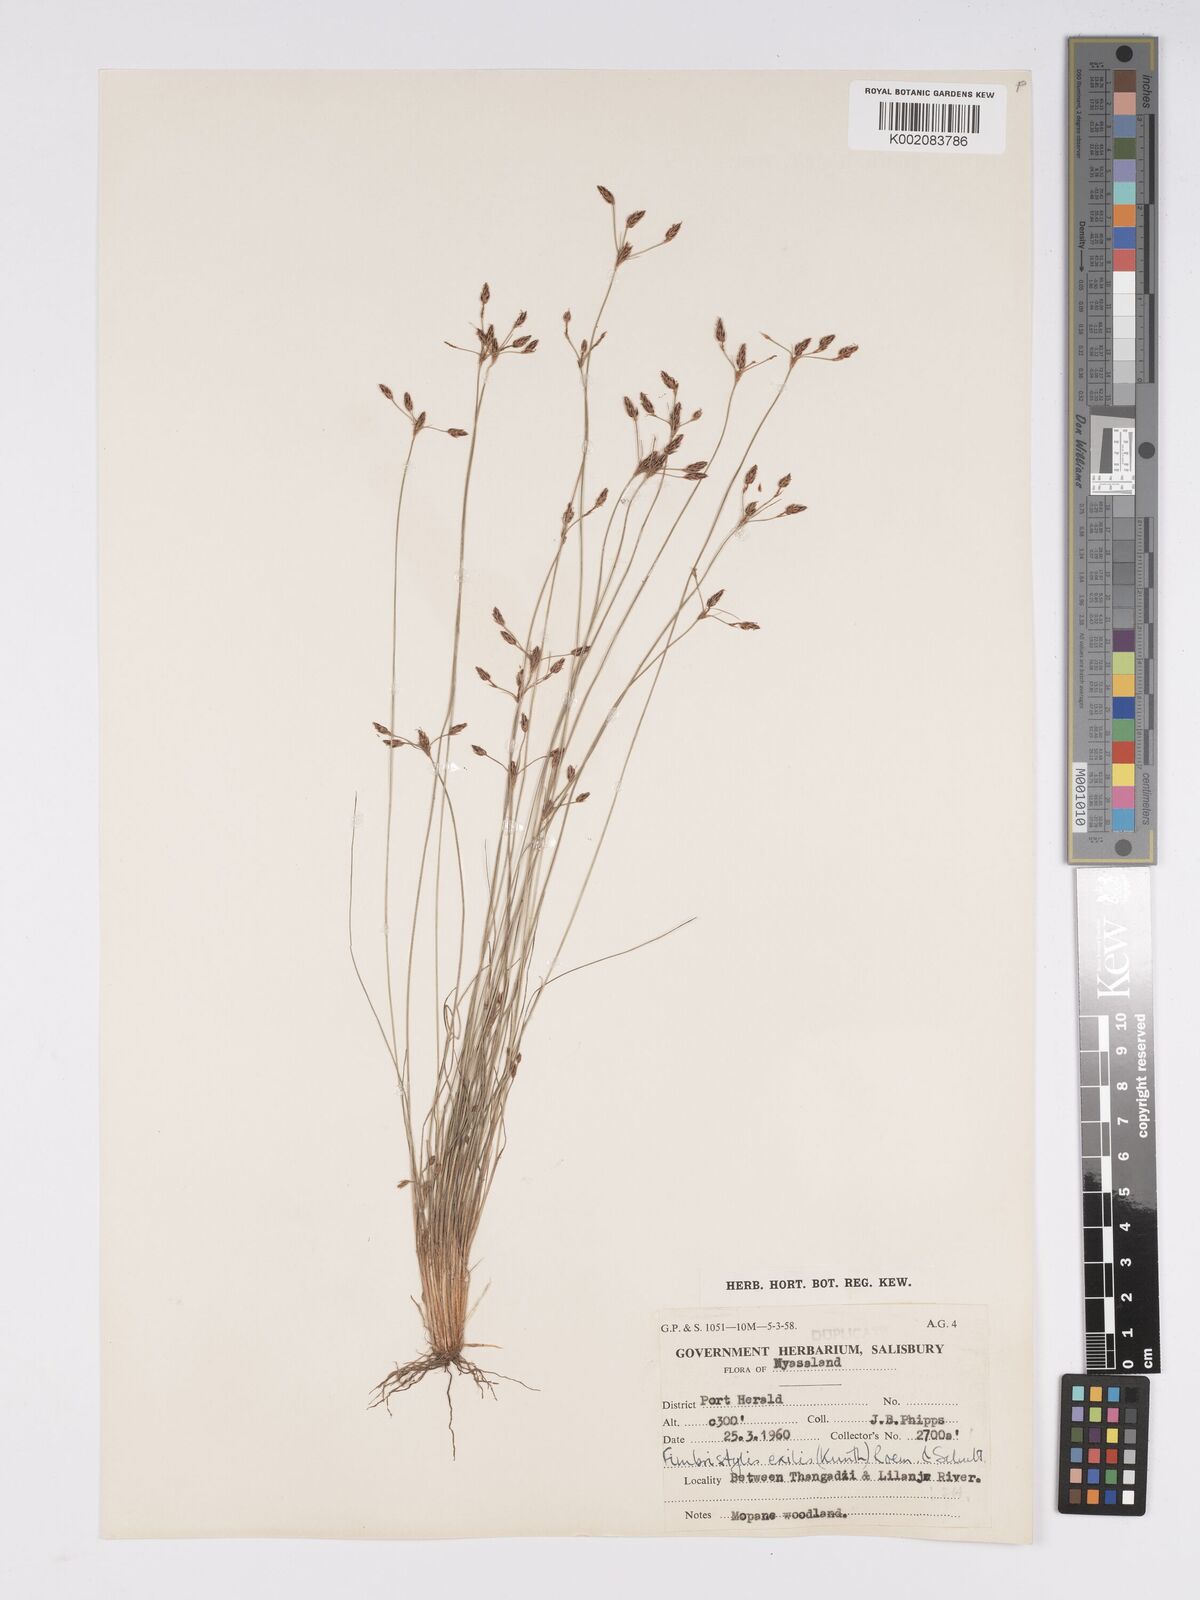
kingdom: Plantae
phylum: Tracheophyta
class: Liliopsida
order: Poales
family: Cyperaceae
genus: Bulbostylis
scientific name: Bulbostylis hispidula
